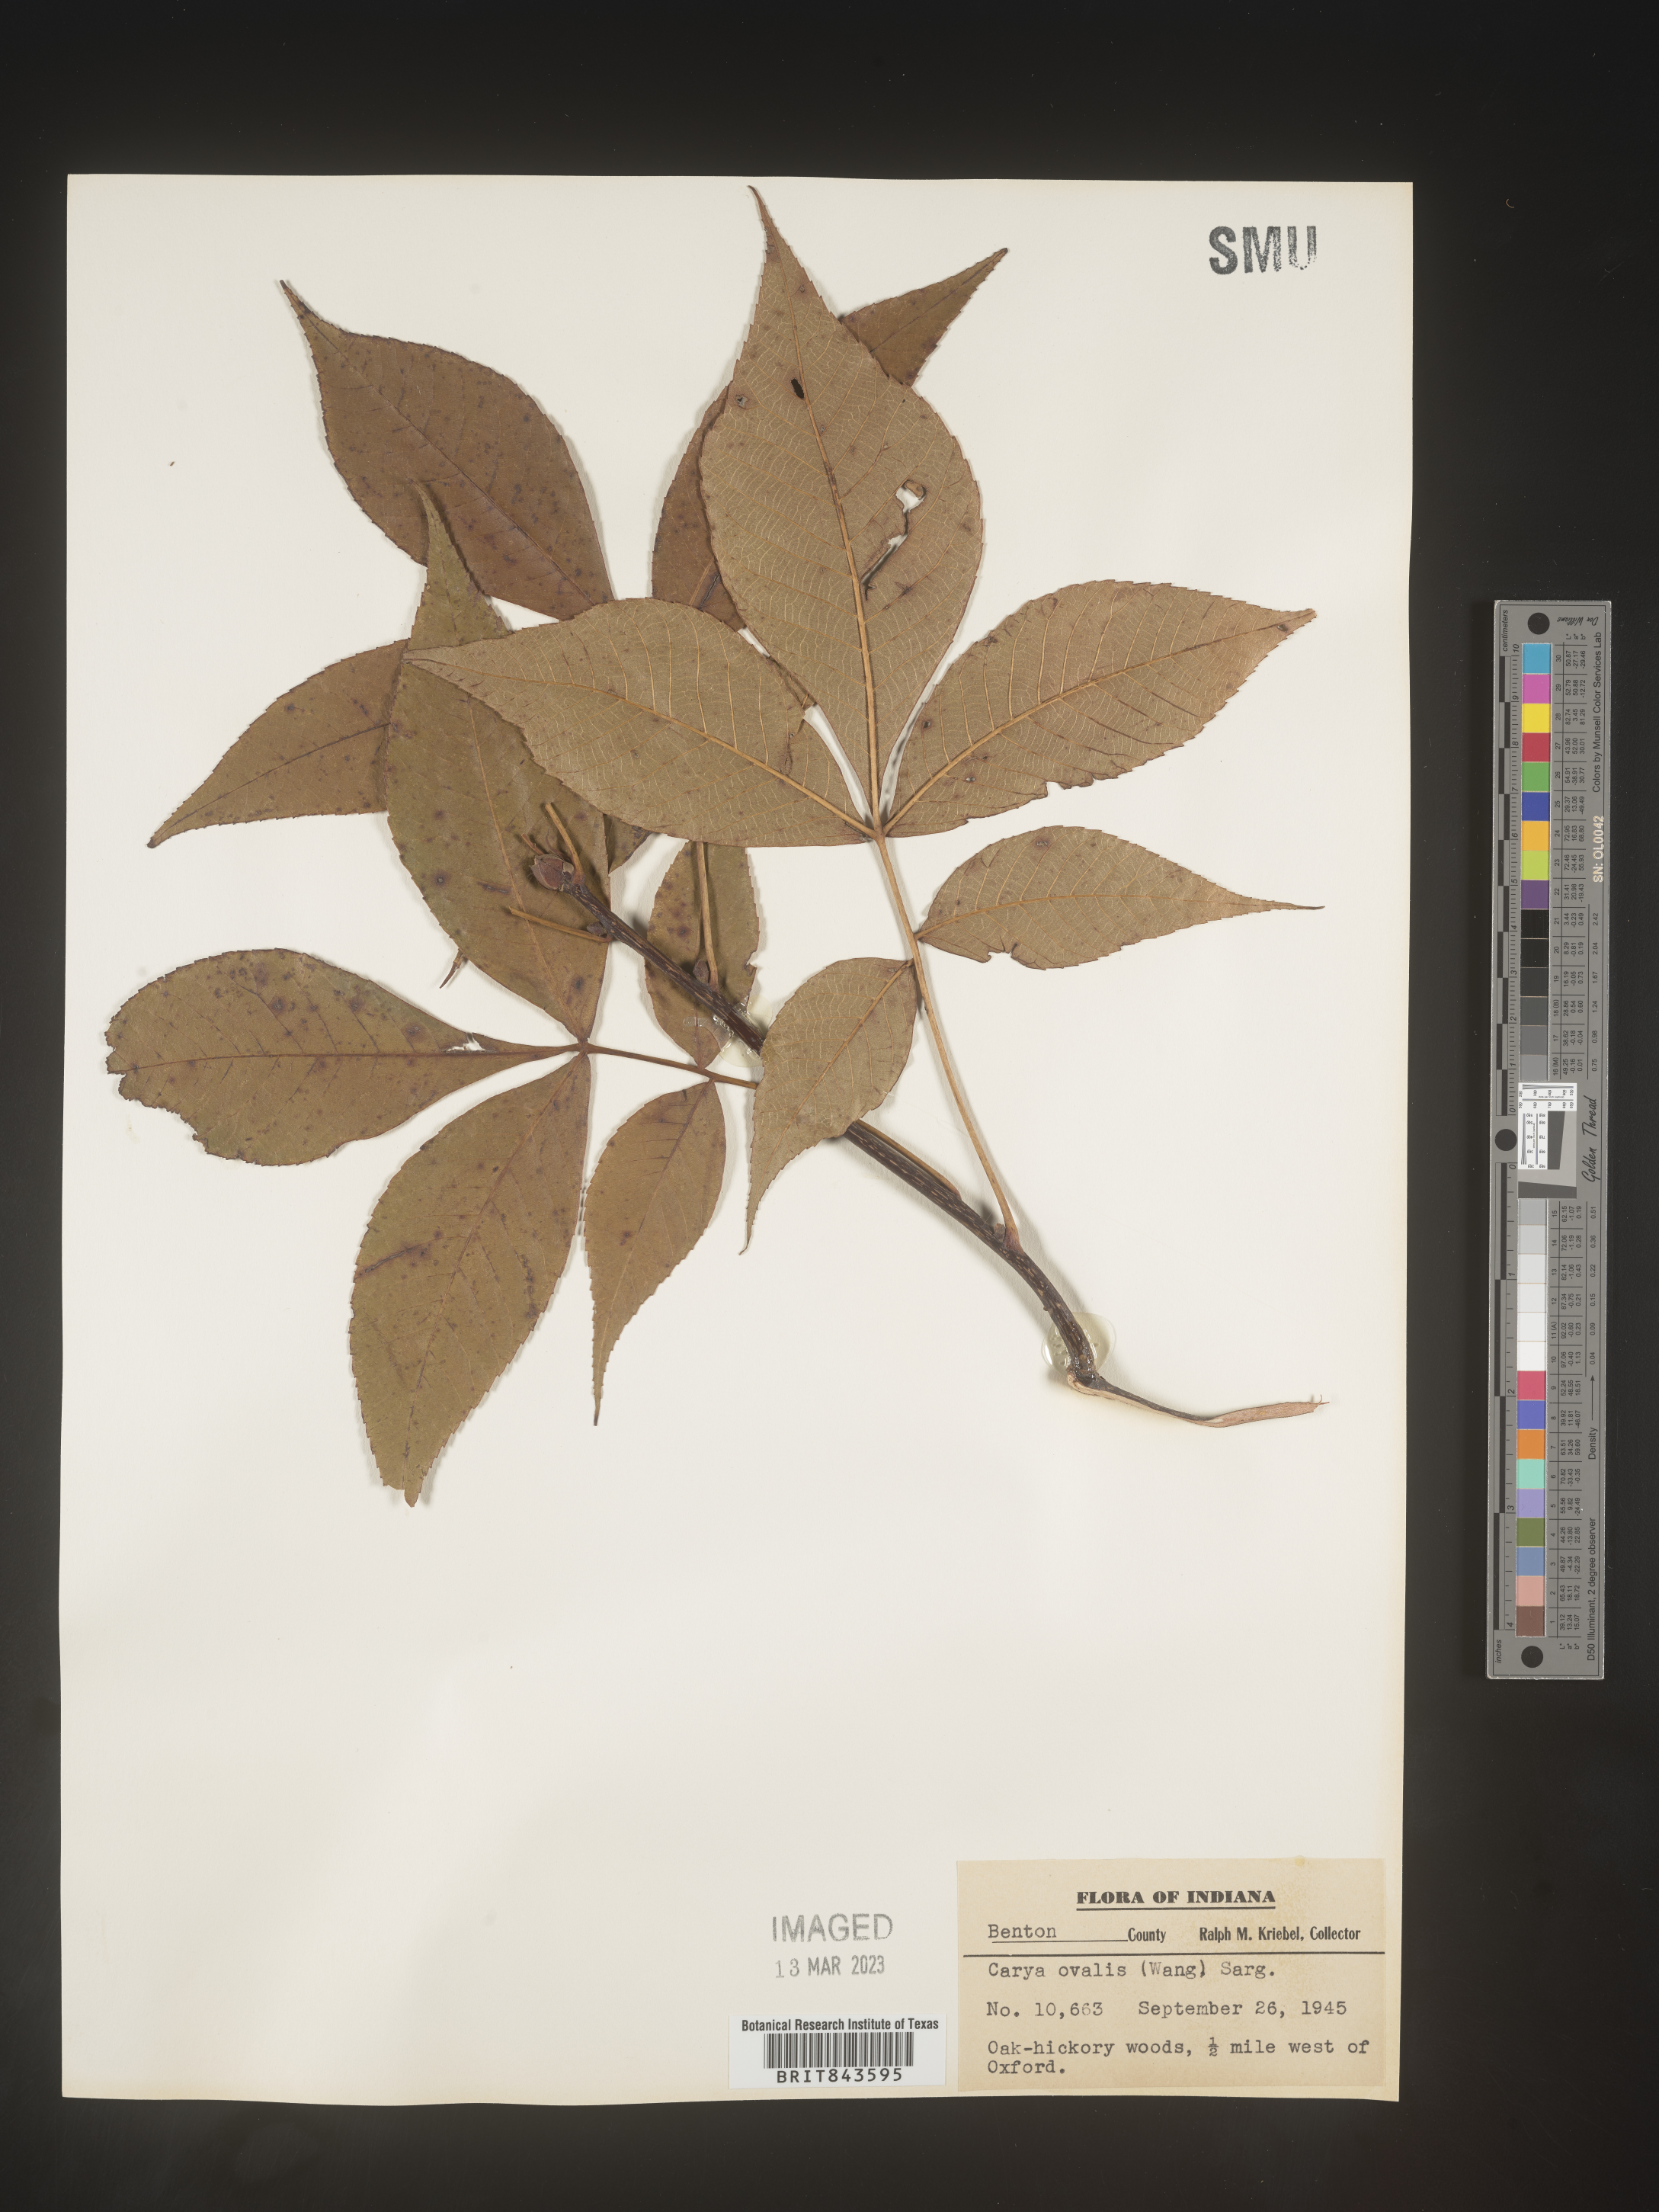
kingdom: Plantae
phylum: Tracheophyta
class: Magnoliopsida
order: Fagales
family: Juglandaceae
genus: Carya
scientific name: Carya ovalis
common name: False shagbark
